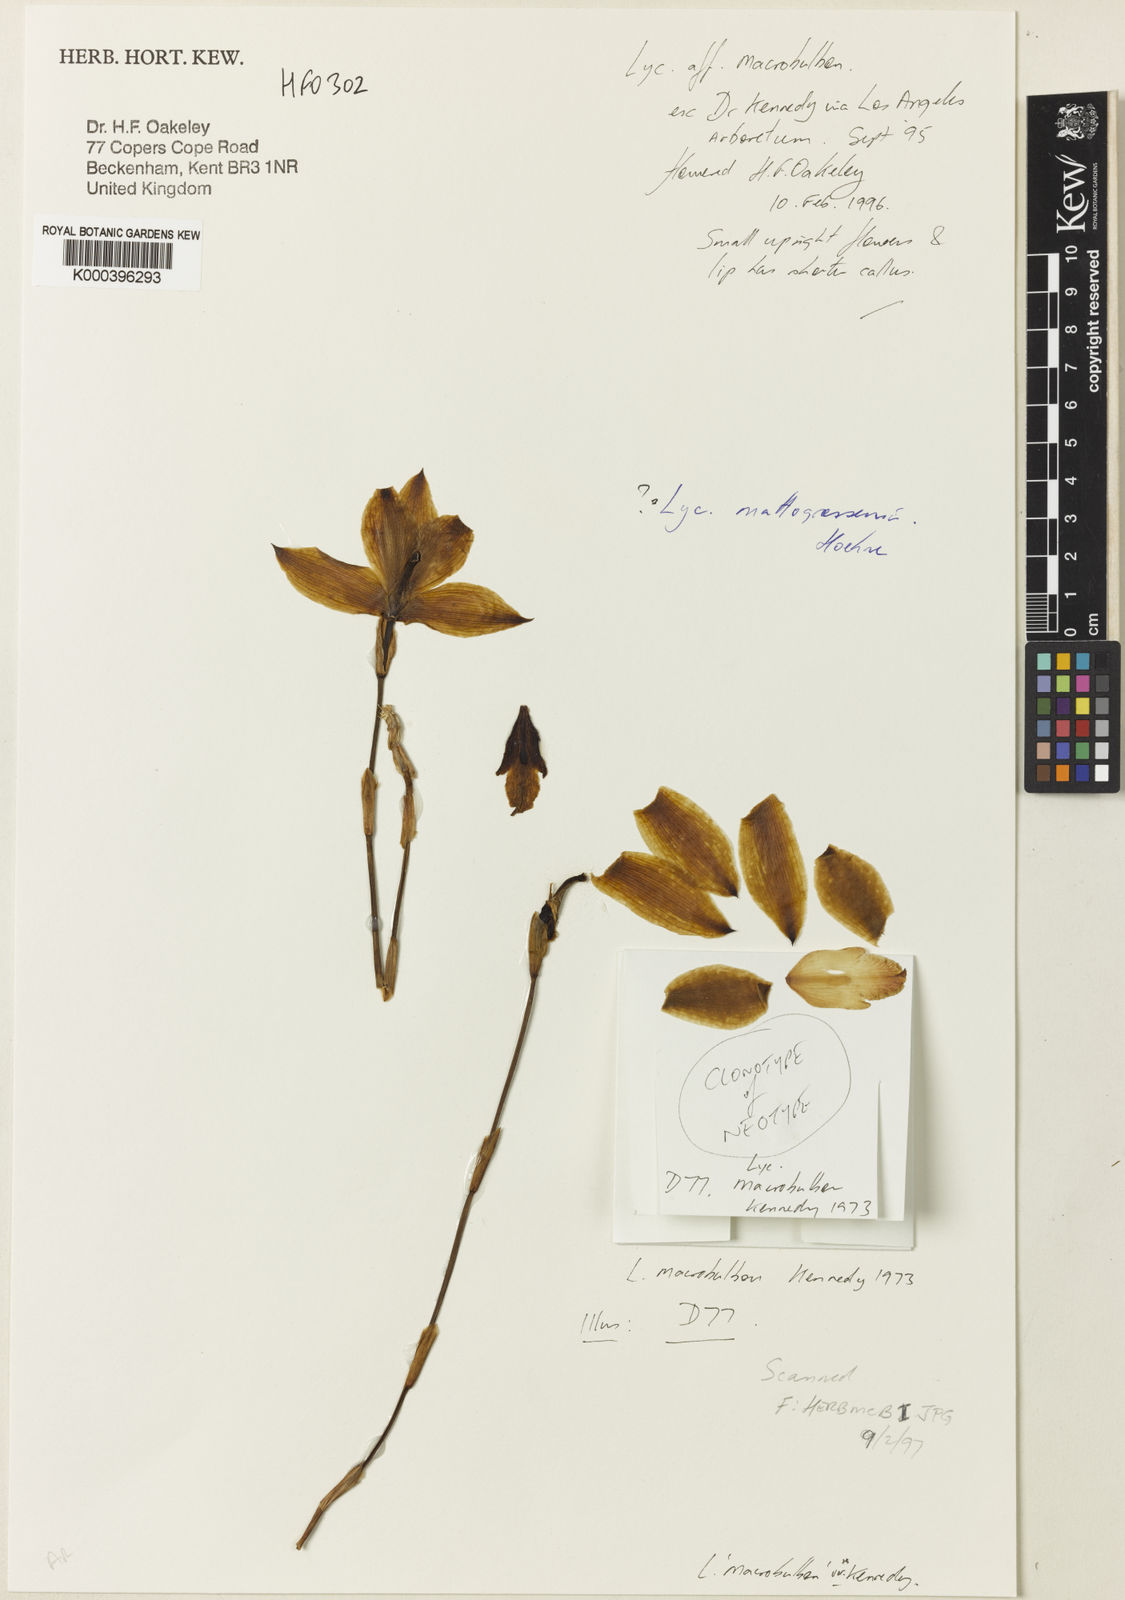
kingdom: Plantae
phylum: Tracheophyta
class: Liliopsida
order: Asparagales
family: Orchidaceae
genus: Lycaste
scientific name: Lycaste macrobulbon
